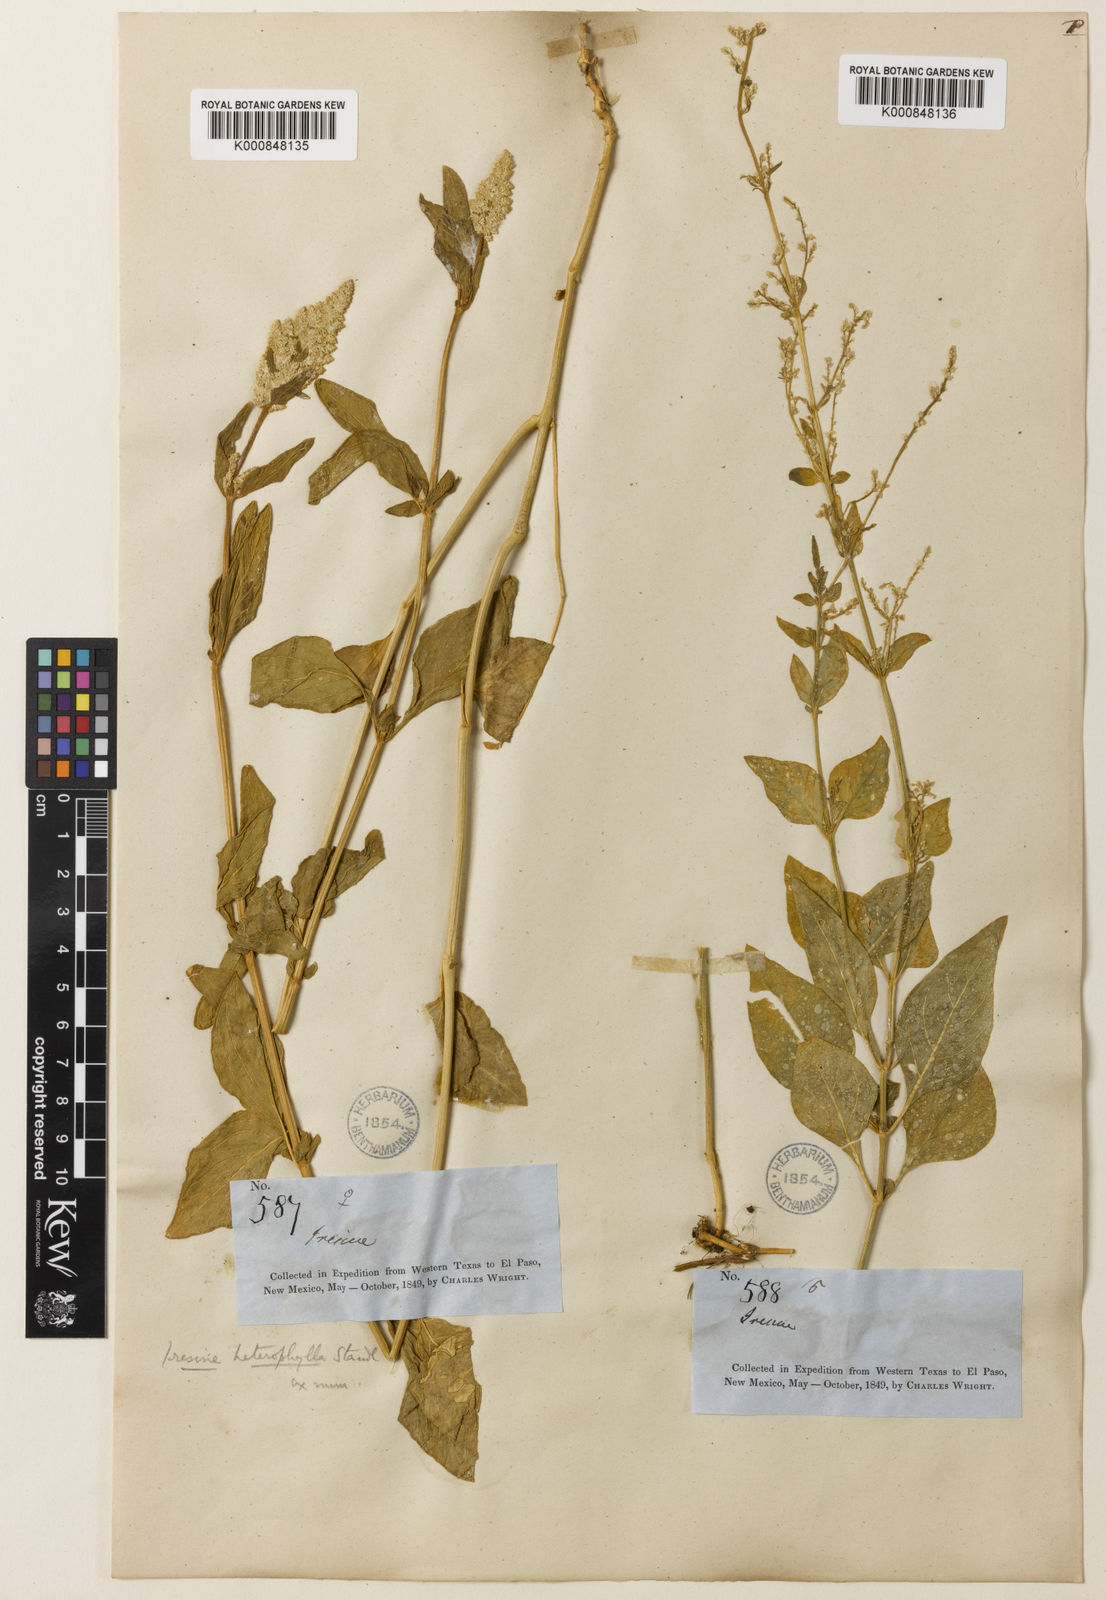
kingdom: Plantae
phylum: Tracheophyta
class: Magnoliopsida
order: Caryophyllales
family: Amaranthaceae
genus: Iresine
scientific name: Iresine heterophylla
